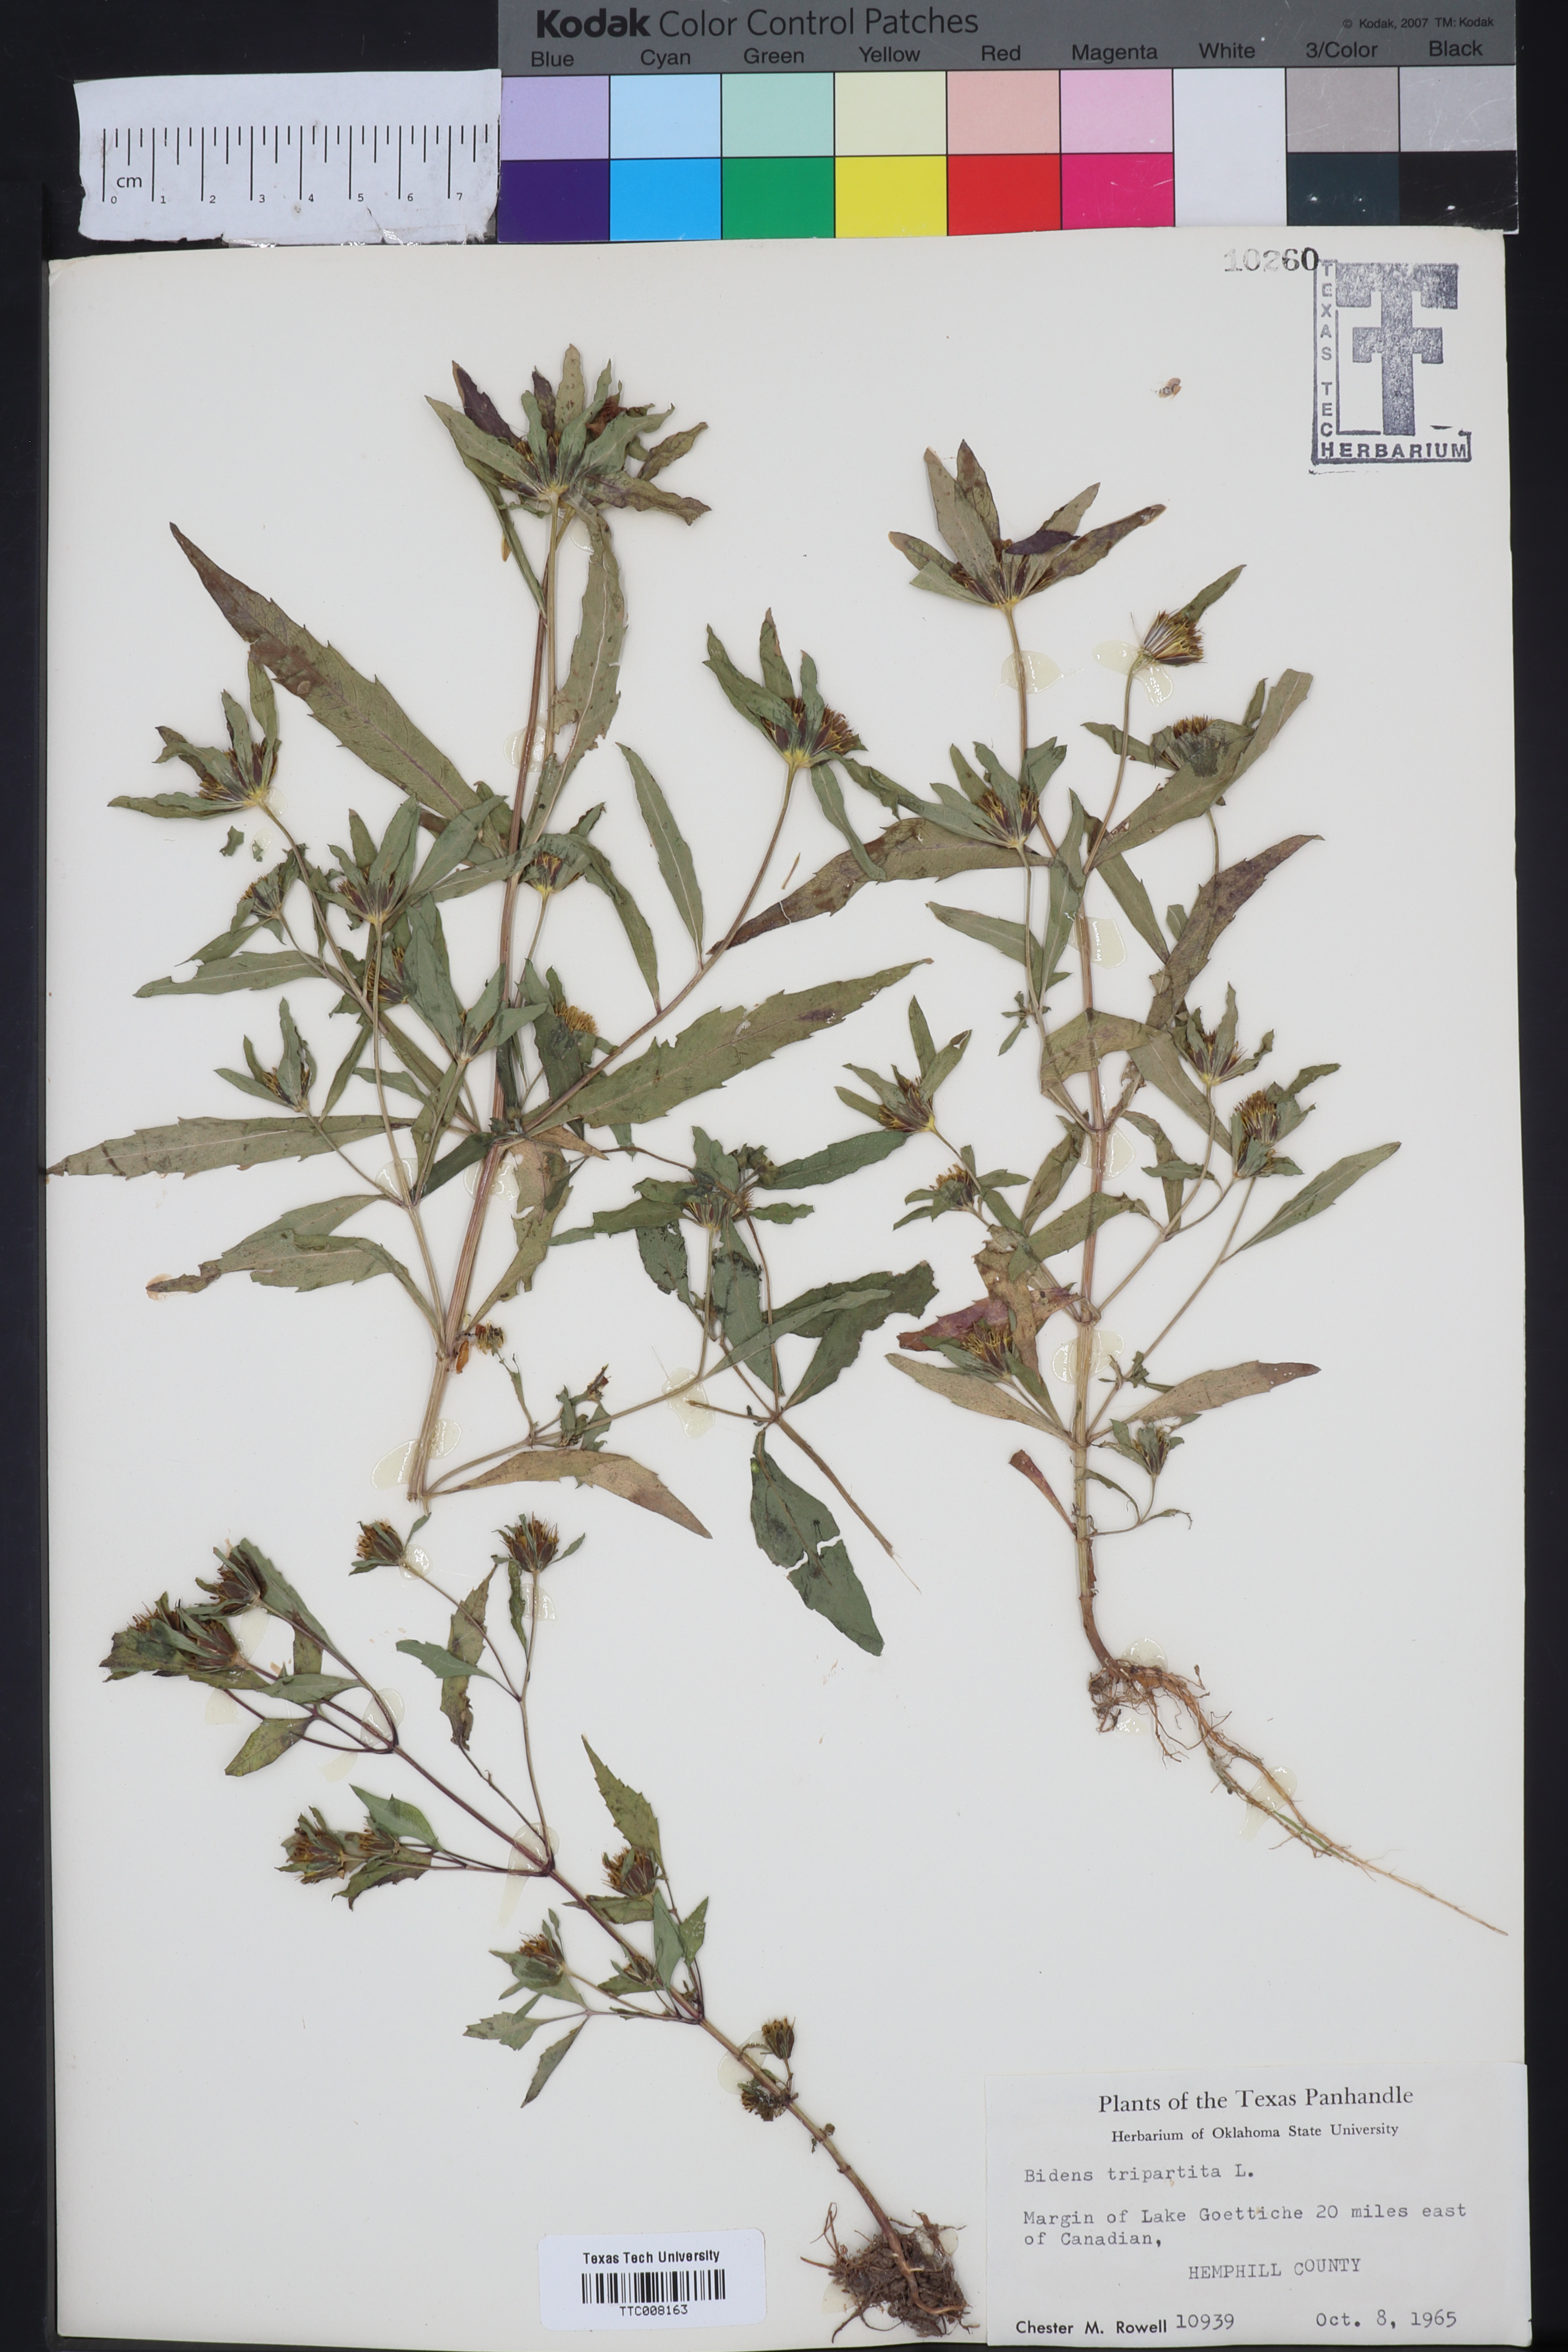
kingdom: Plantae
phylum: Tracheophyta
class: Magnoliopsida
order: Asterales
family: Asteraceae
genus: Bidens
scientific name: Bidens tripartita
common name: Trifid bur-marigold
